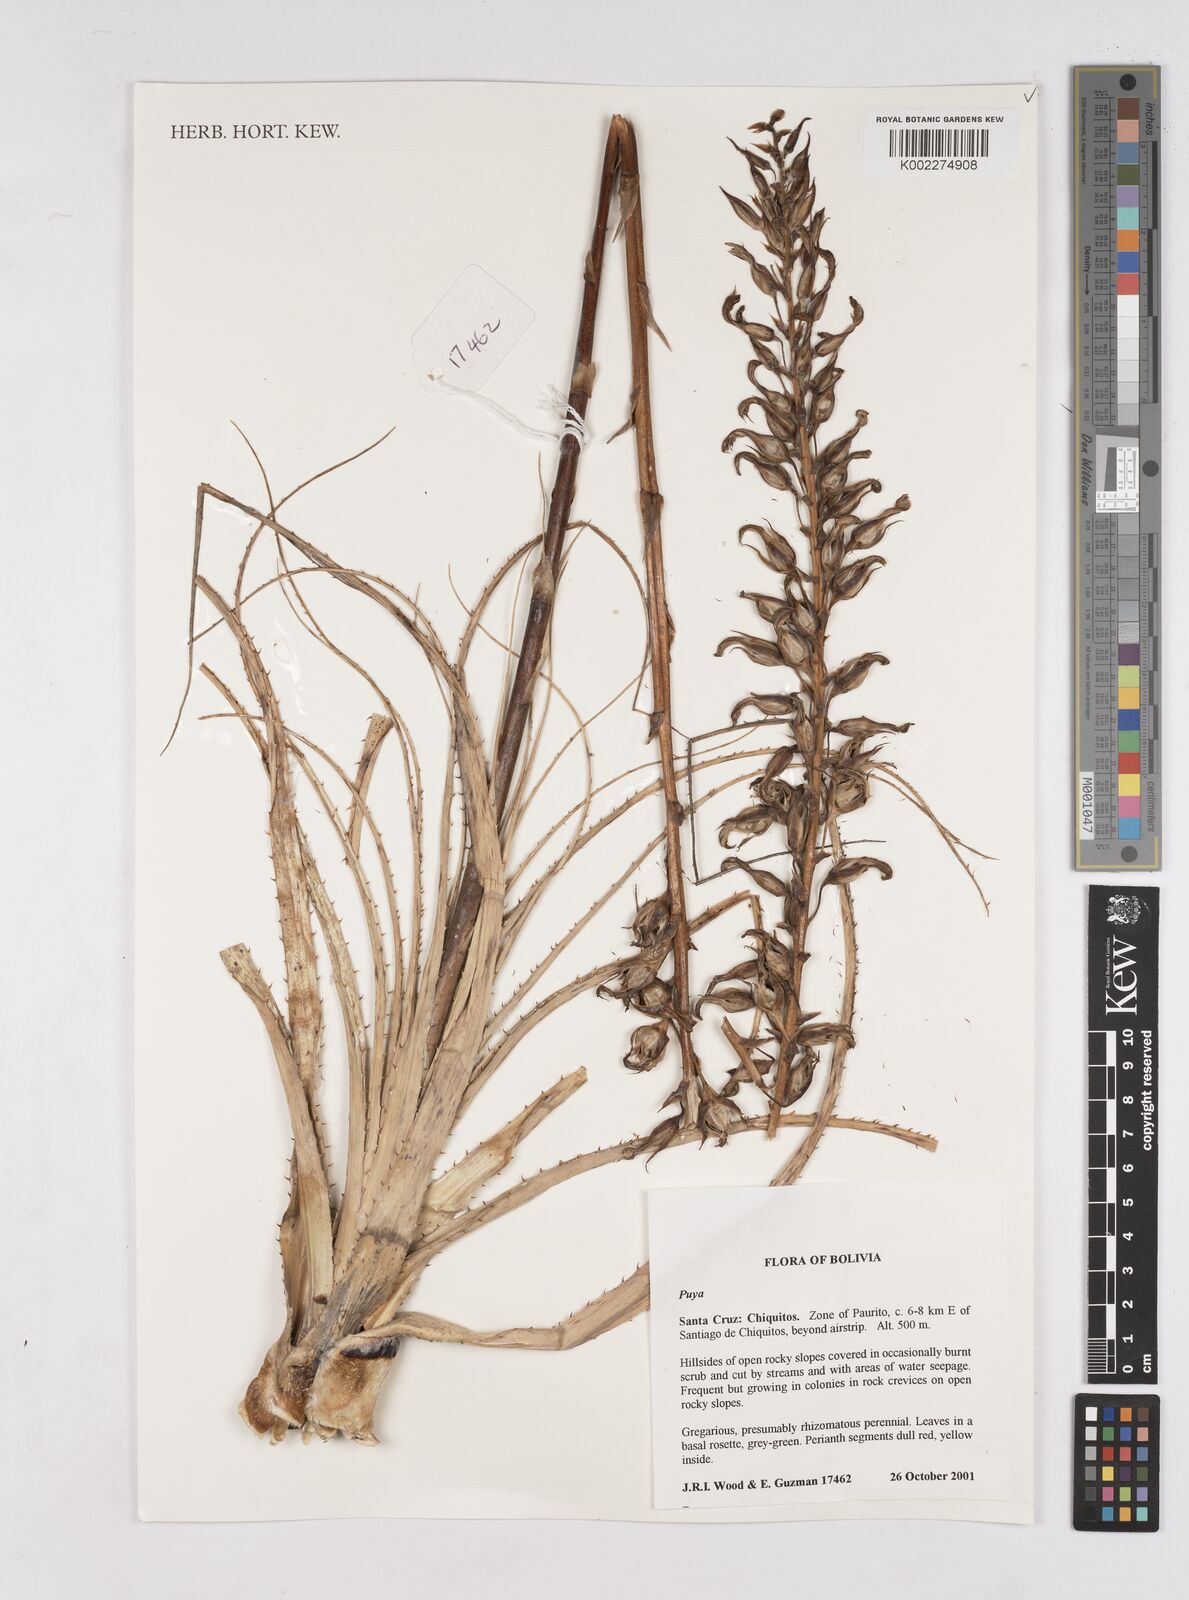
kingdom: Plantae
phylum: Tracheophyta
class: Liliopsida
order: Poales
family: Bromeliaceae
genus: Puya
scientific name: Puya
